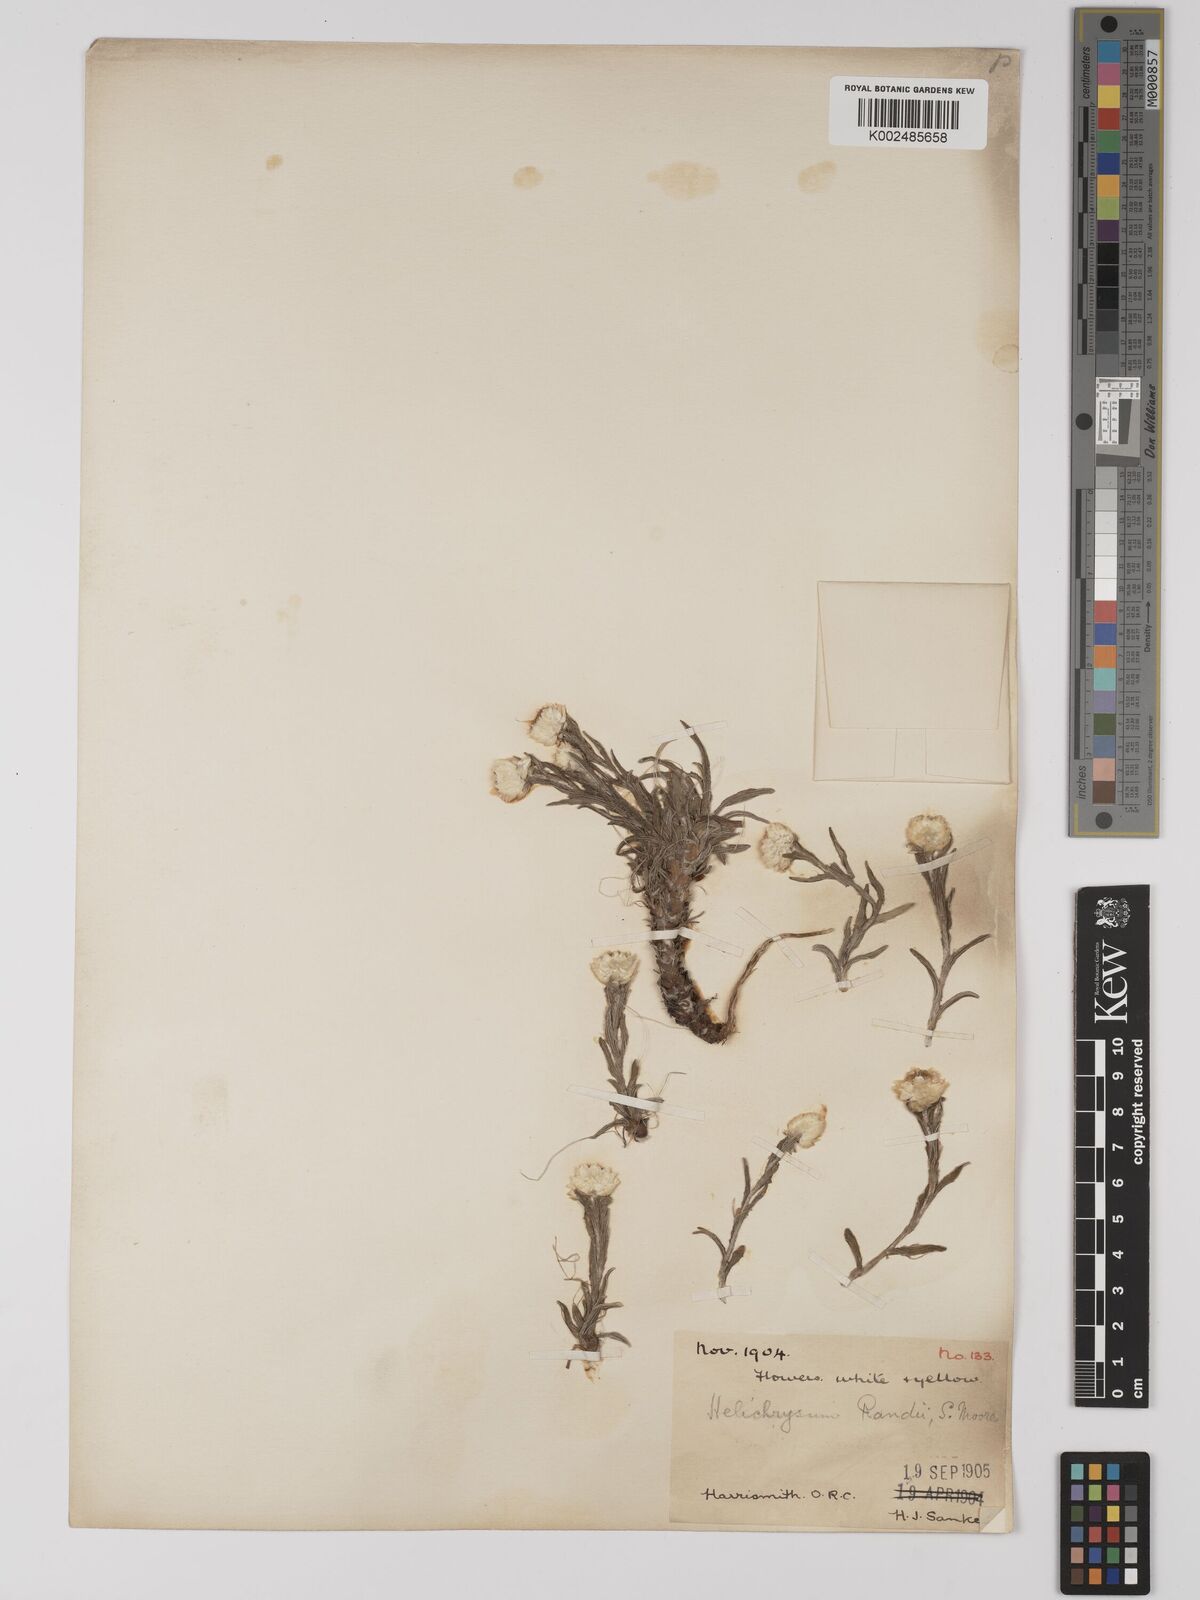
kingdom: Plantae
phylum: Tracheophyta
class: Magnoliopsida
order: Asterales
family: Asteraceae
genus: Helichrysum
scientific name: Helichrysum chionosphaerum
